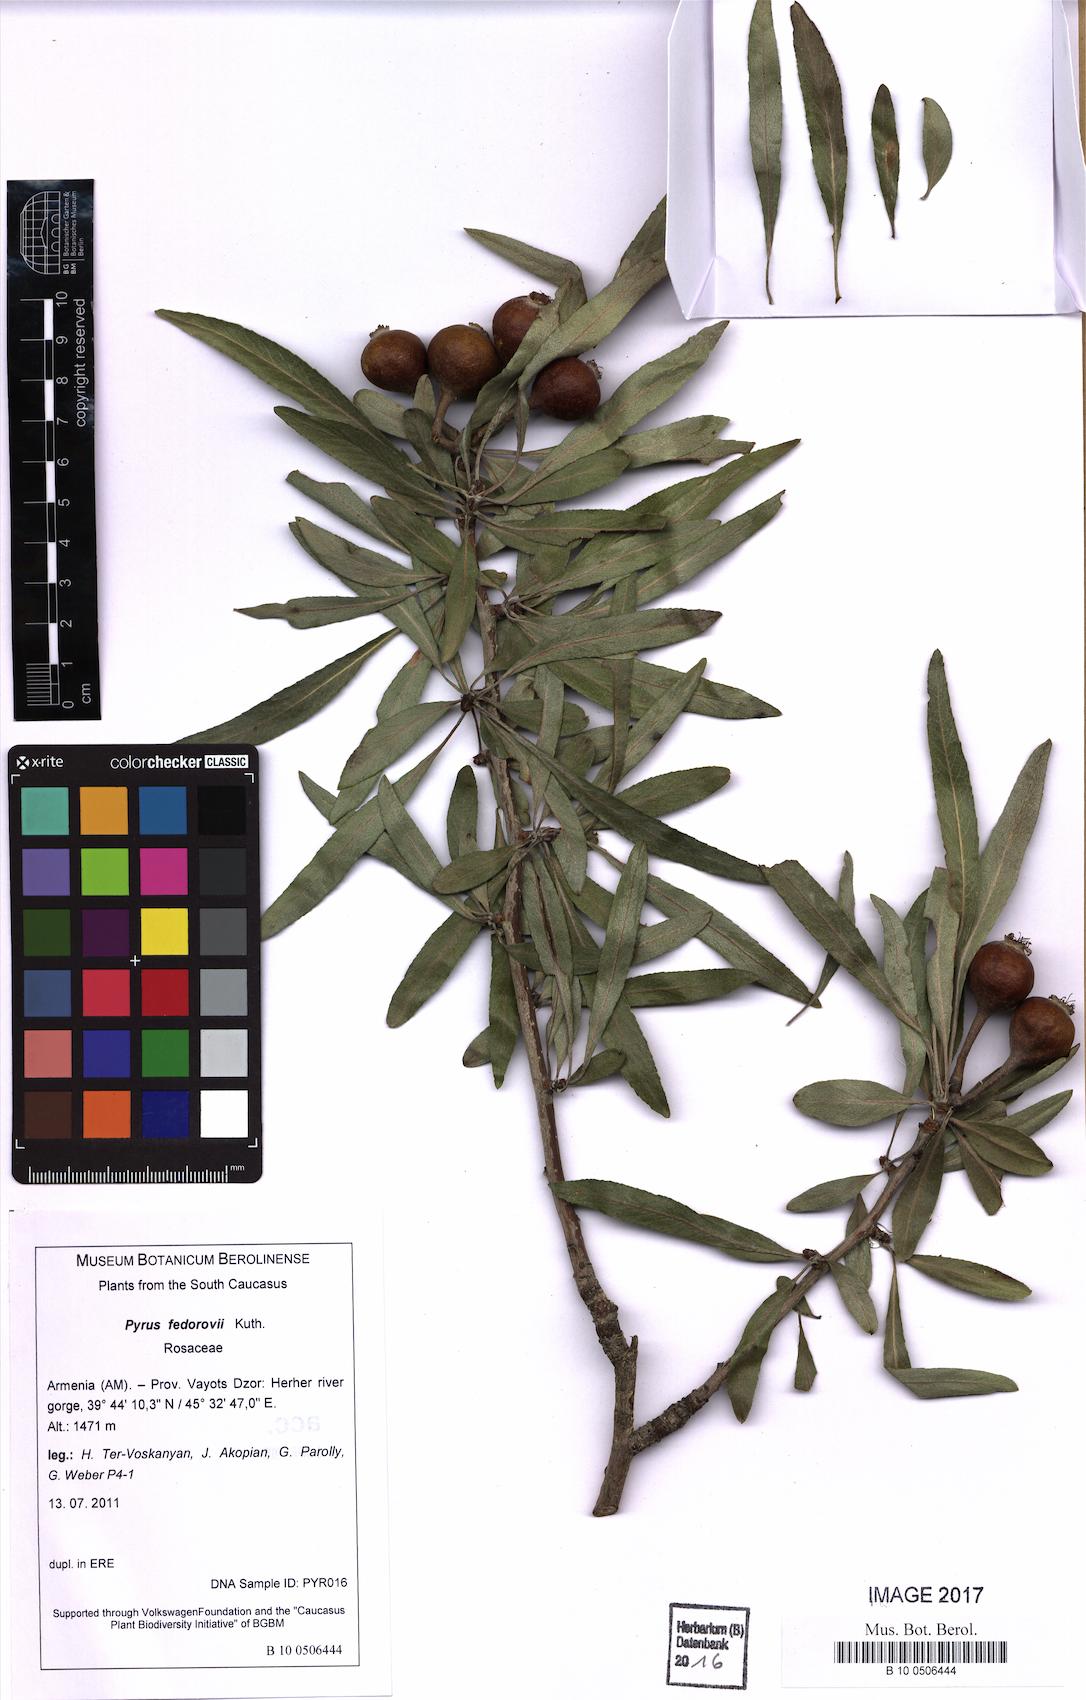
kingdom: Plantae
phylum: Tracheophyta
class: Magnoliopsida
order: Rosales
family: Rosaceae
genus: Pyrus
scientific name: Pyrus fedorovii
